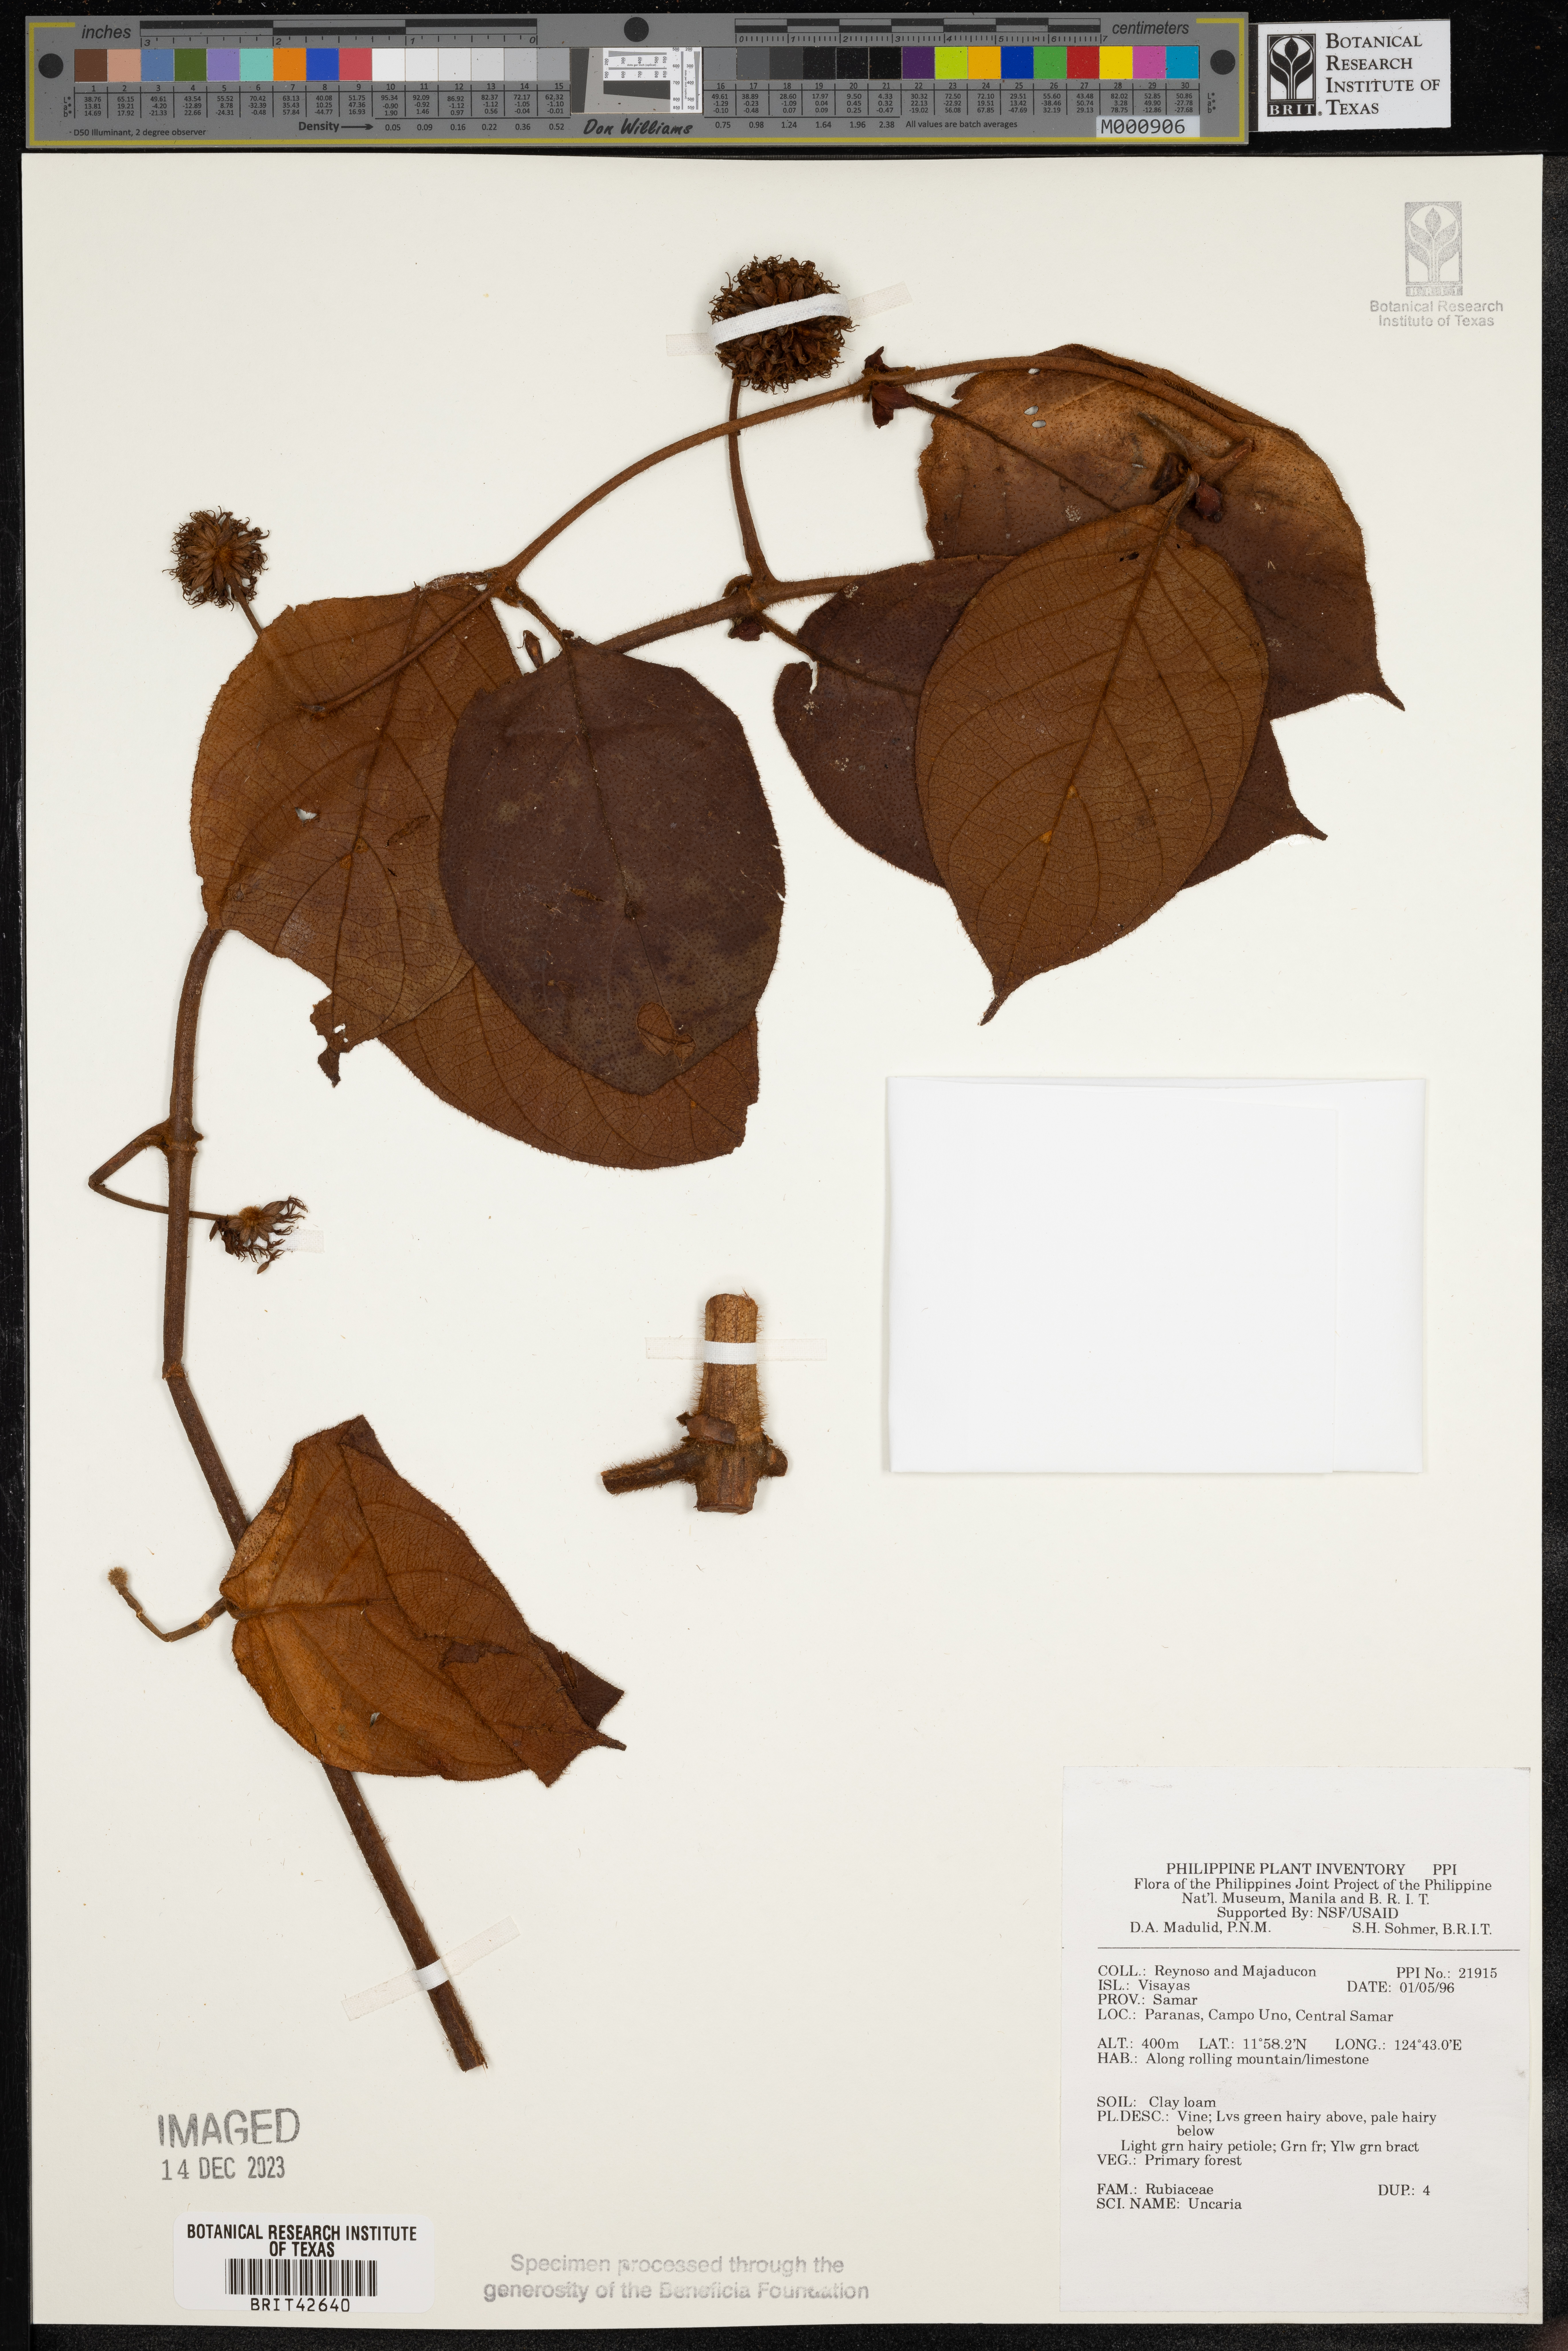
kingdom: Plantae
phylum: Tracheophyta
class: Magnoliopsida
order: Gentianales
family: Rubiaceae
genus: Uncaria
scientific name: Uncaria
